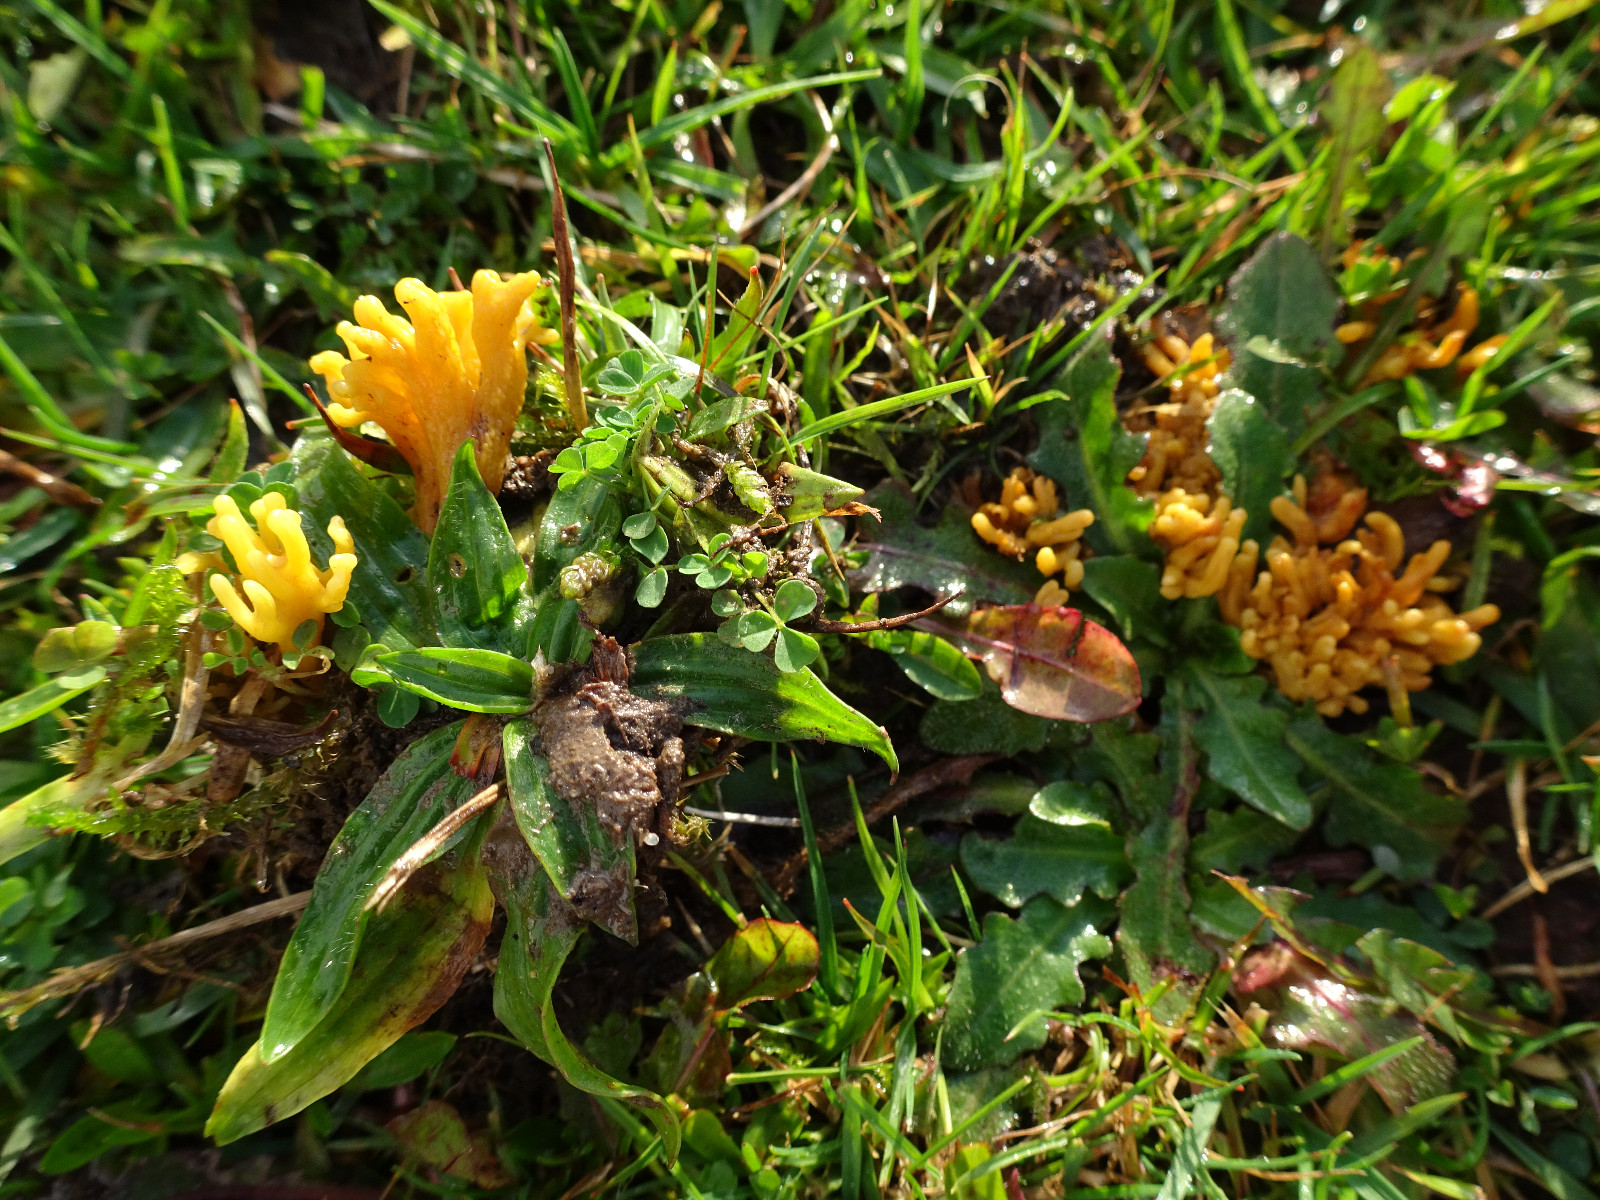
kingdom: Fungi
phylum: Basidiomycota
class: Agaricomycetes
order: Agaricales
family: Clavariaceae
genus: Clavulinopsis
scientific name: Clavulinopsis corniculata
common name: eng-køllesvamp
